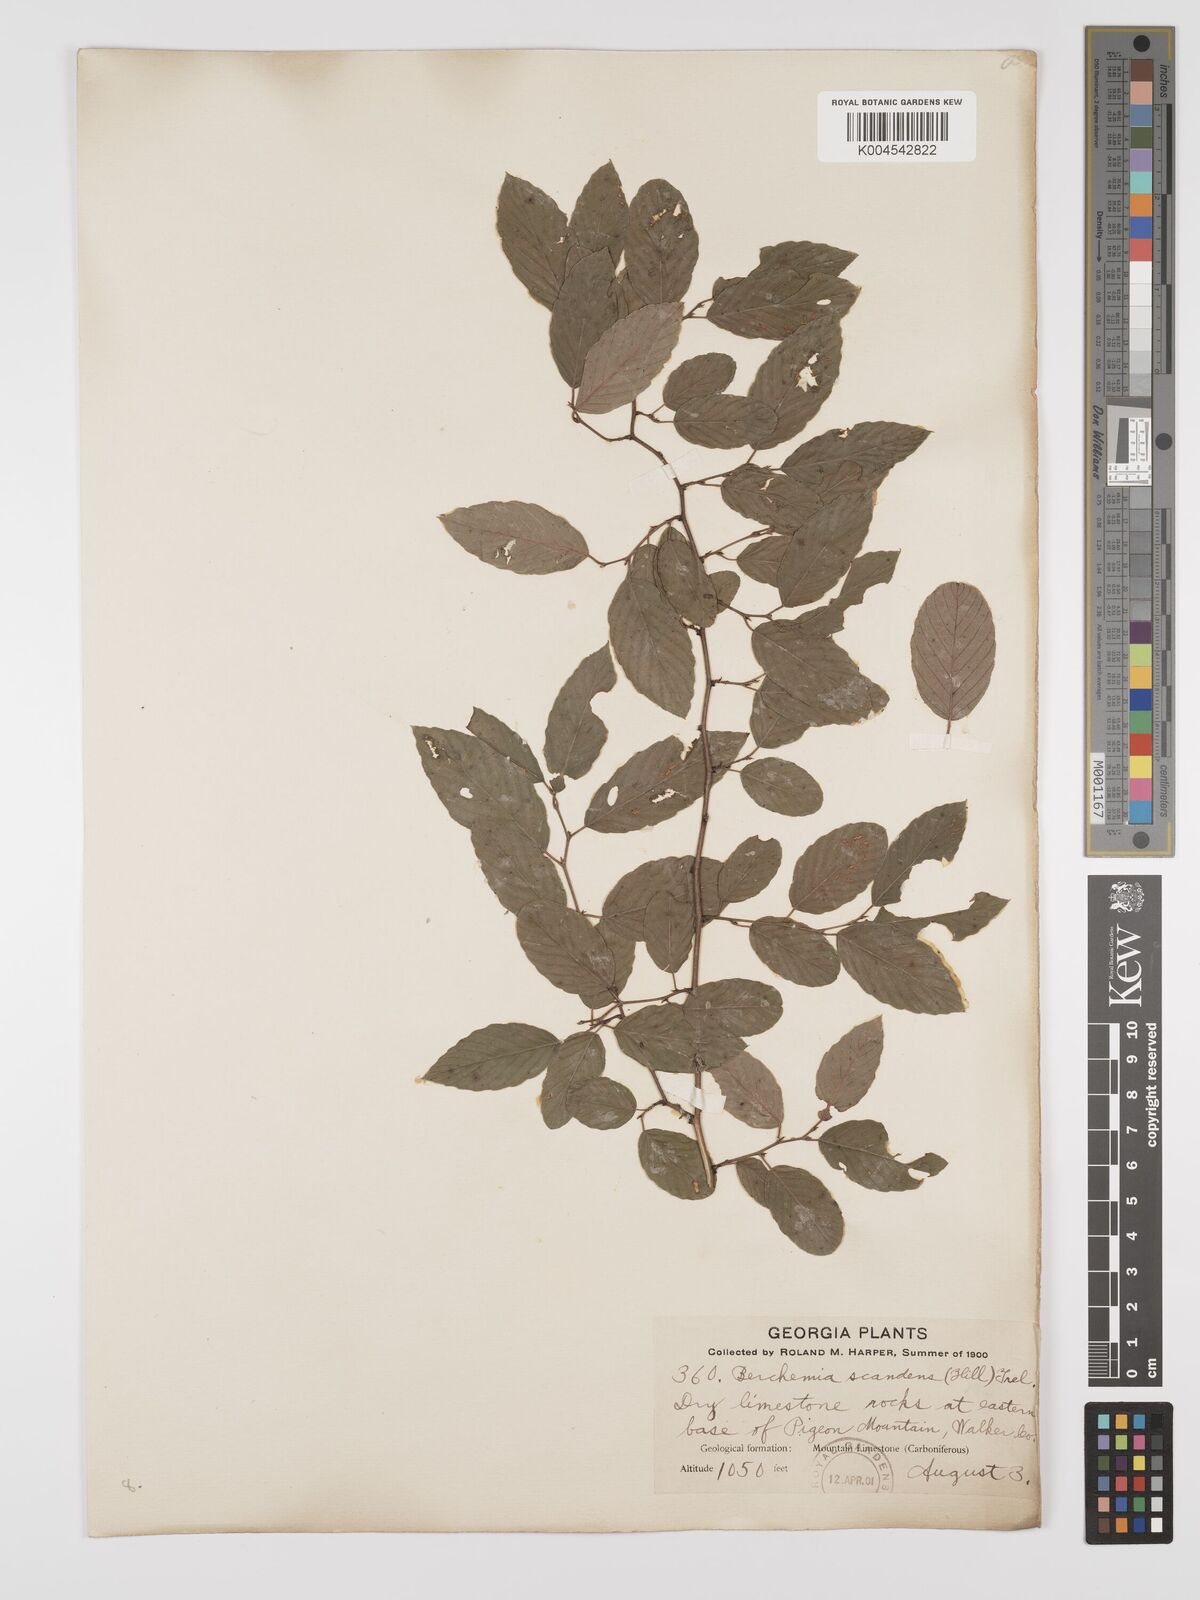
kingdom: Plantae
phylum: Tracheophyta
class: Magnoliopsida
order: Rosales
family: Rhamnaceae
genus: Berchemia
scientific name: Berchemia scandens
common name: Supplejack
